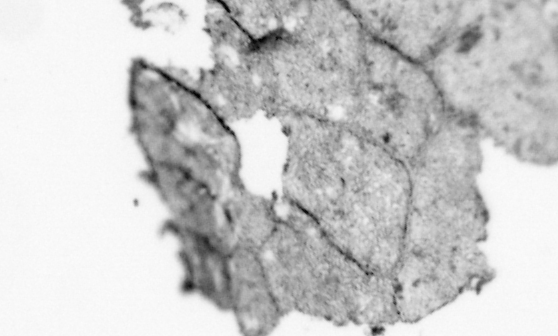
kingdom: Animalia
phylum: Chordata
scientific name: Chordata
